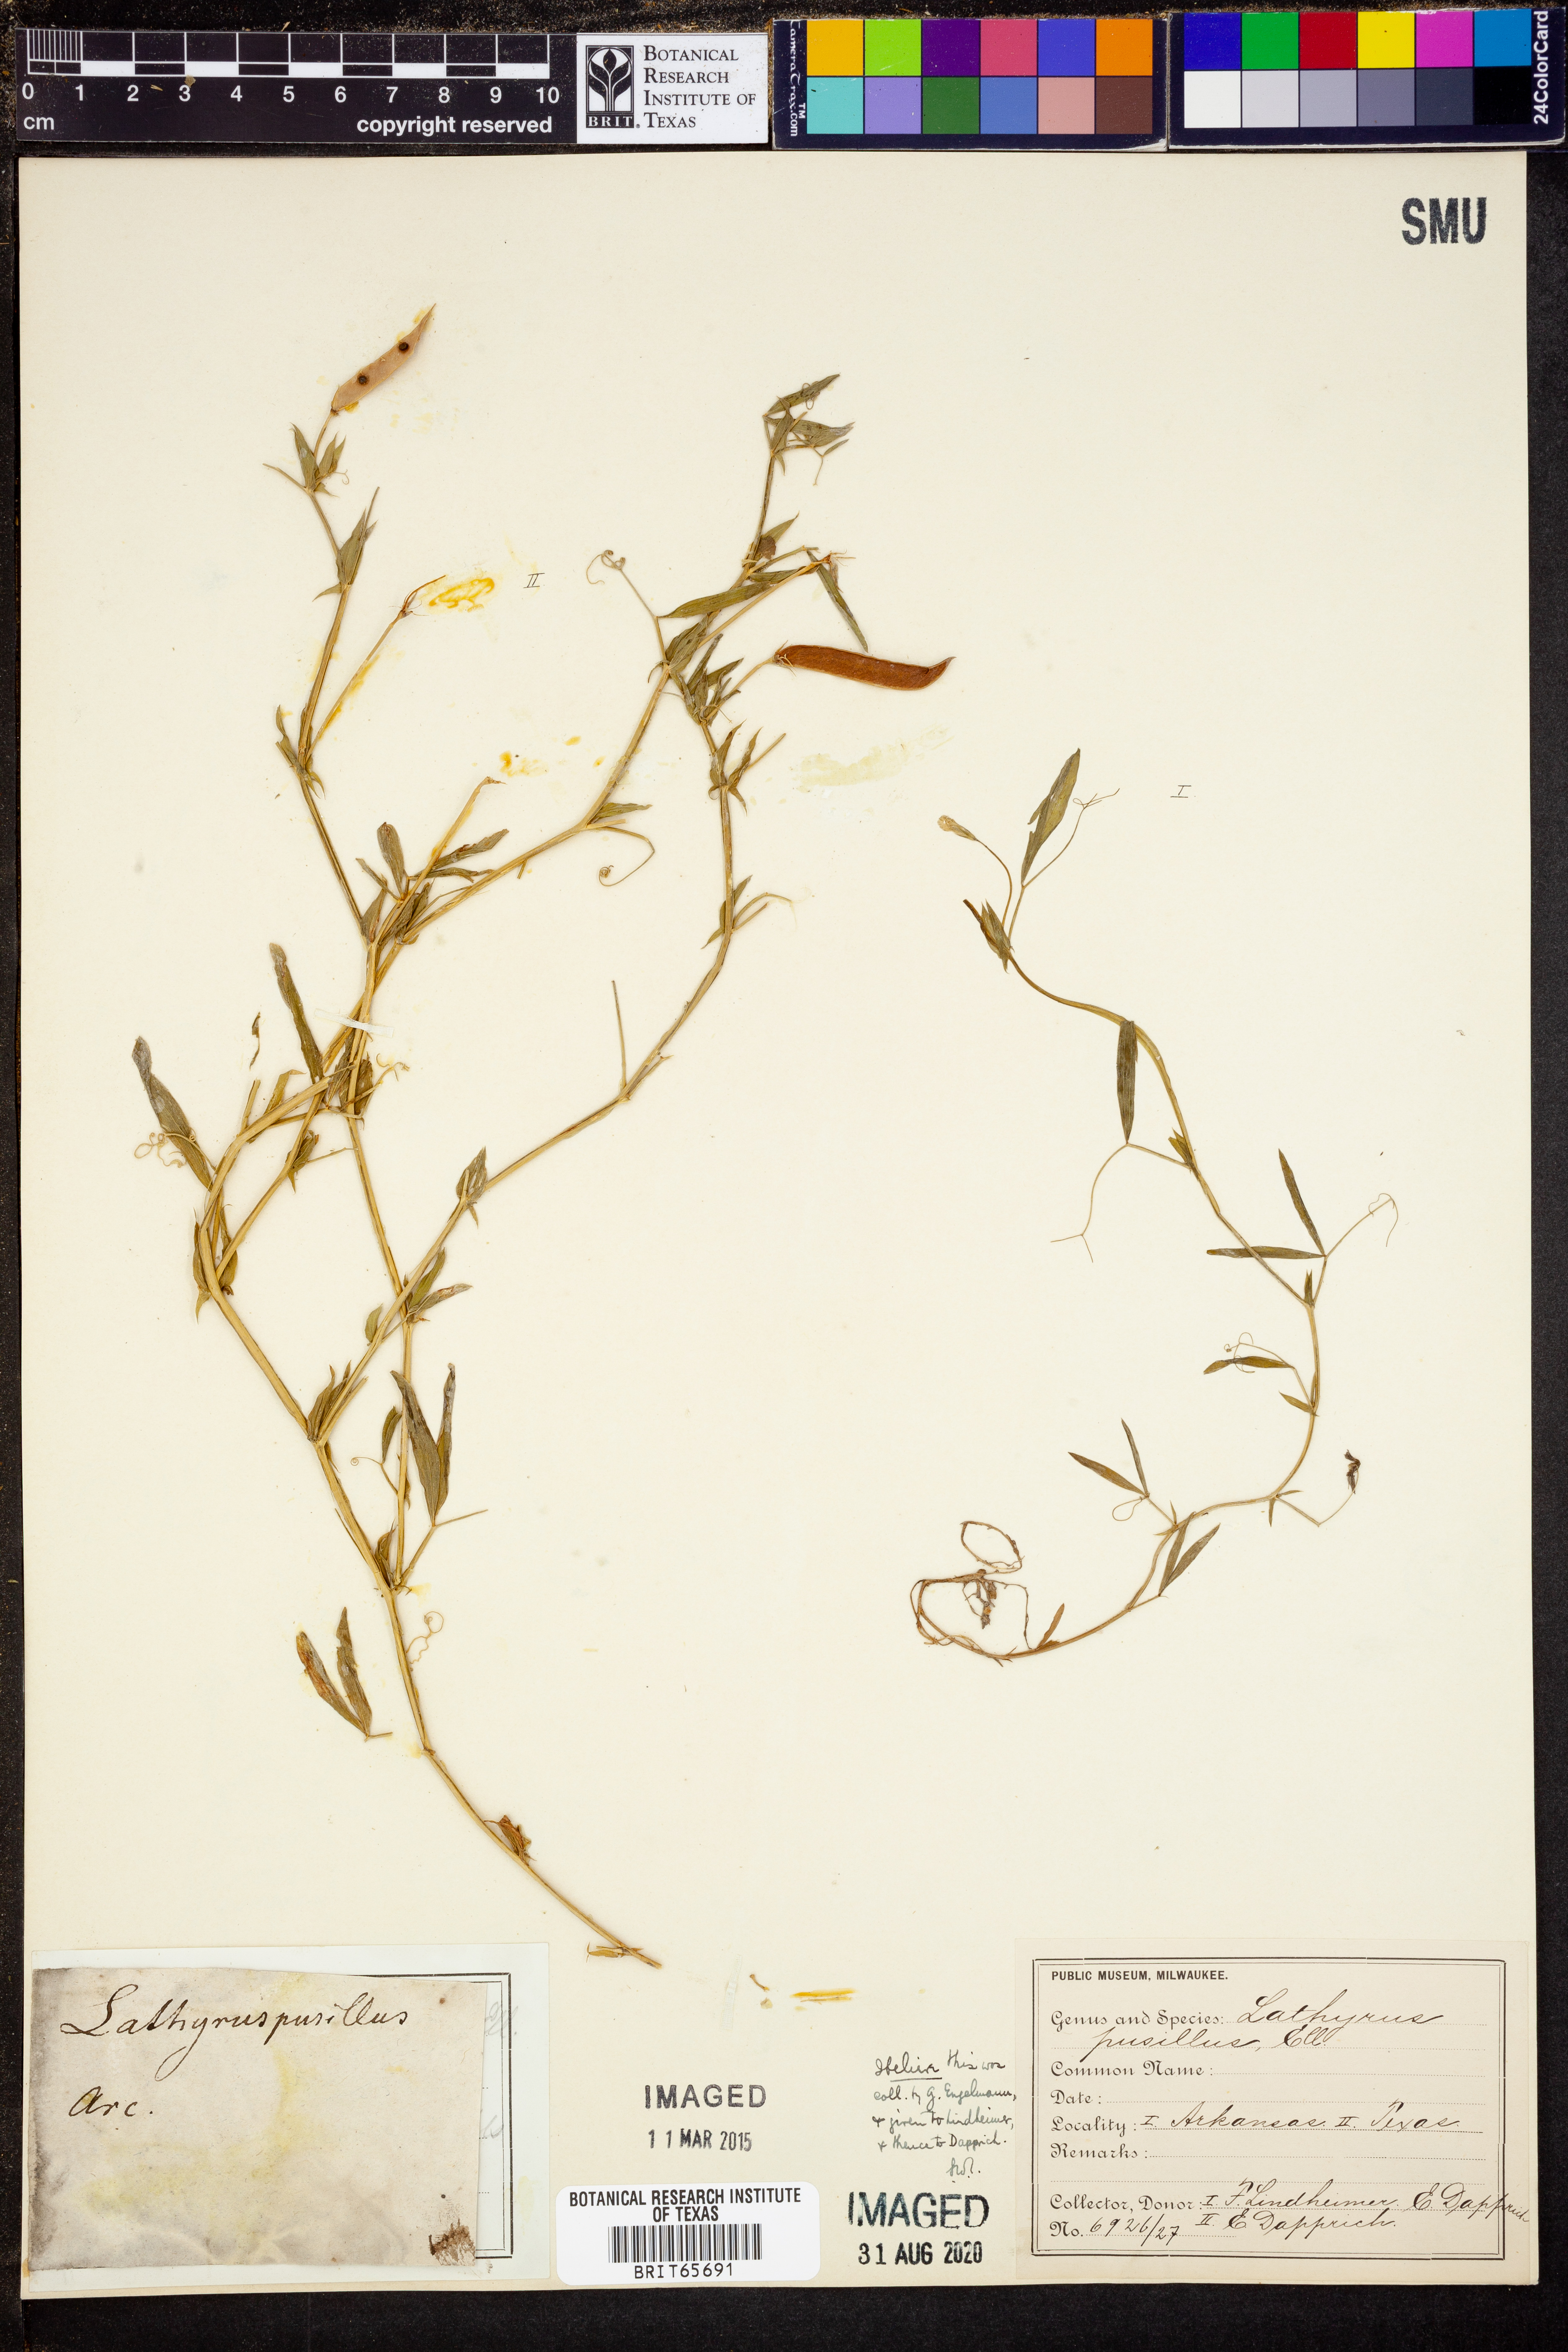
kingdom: Plantae
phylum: Tracheophyta
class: Magnoliopsida
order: Fabales
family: Fabaceae
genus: Lathyrus
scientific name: Lathyrus pusillus
